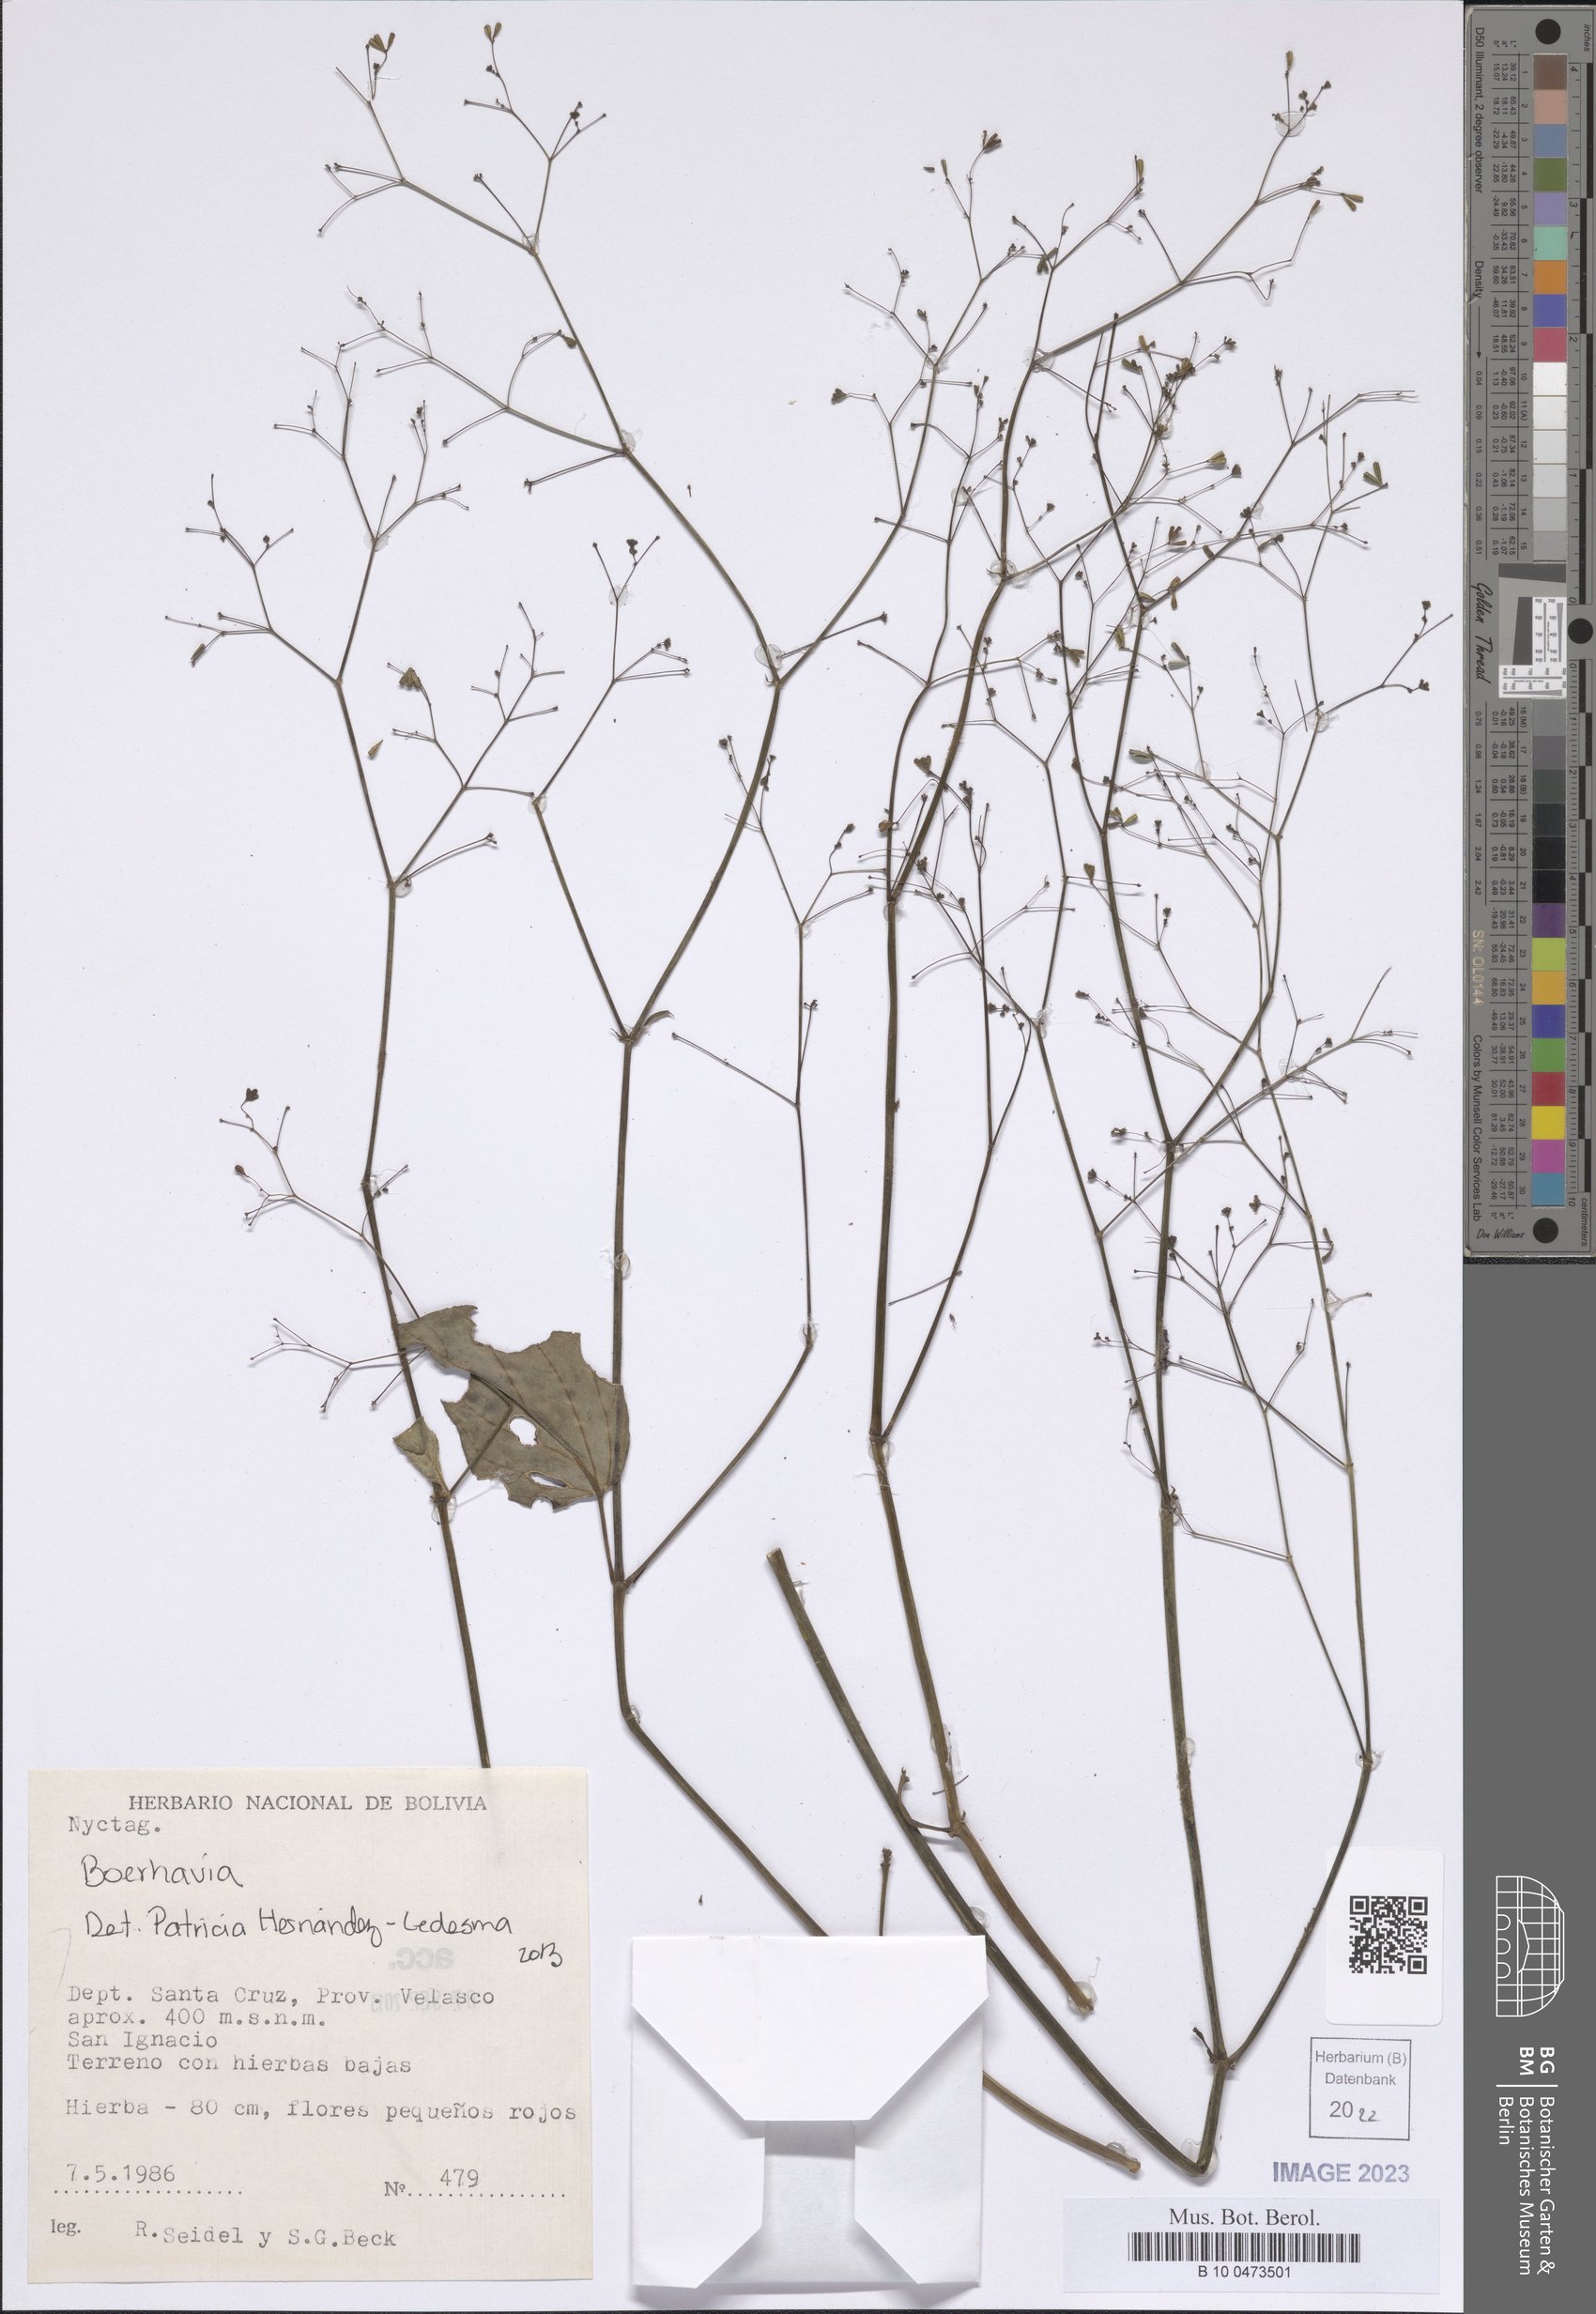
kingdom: Plantae
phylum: Tracheophyta
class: Magnoliopsida
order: Caryophyllales
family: Nyctaginaceae
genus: Boerhavia
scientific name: Boerhavia
